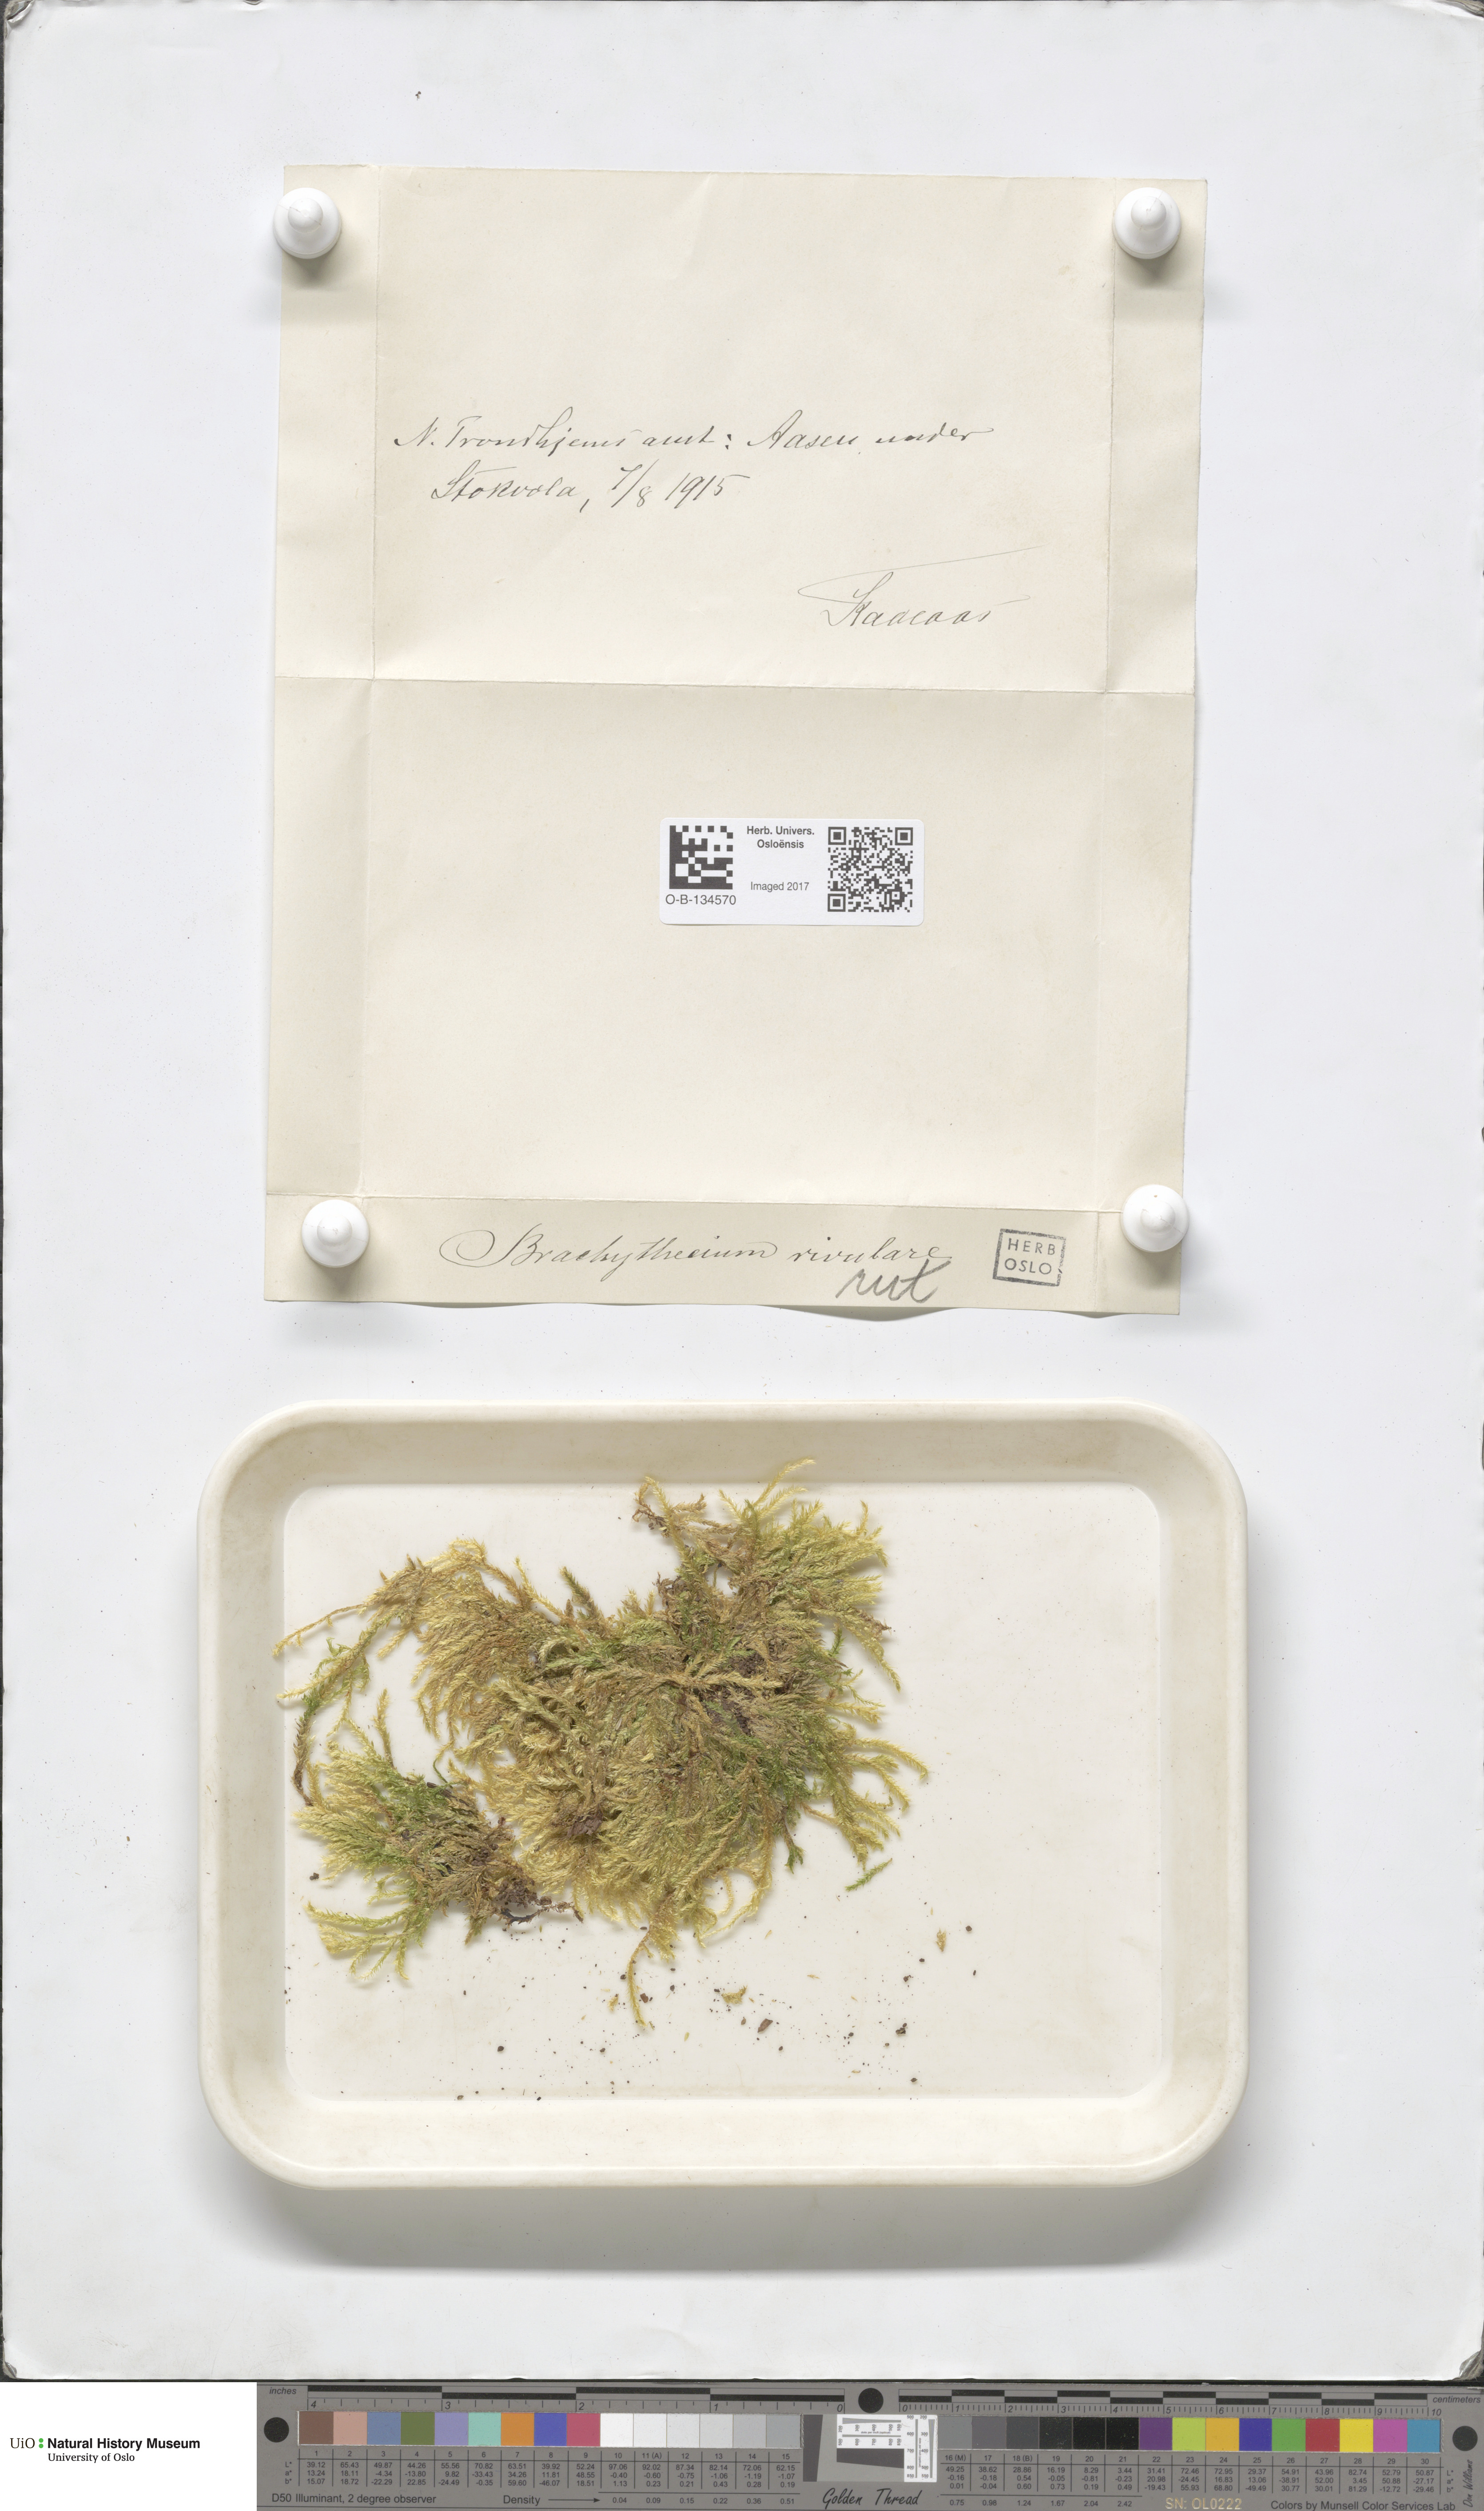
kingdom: Plantae
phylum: Bryophyta
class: Bryopsida
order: Hypnales
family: Brachytheciaceae
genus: Brachythecium
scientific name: Brachythecium rivulare
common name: River ragged moss
